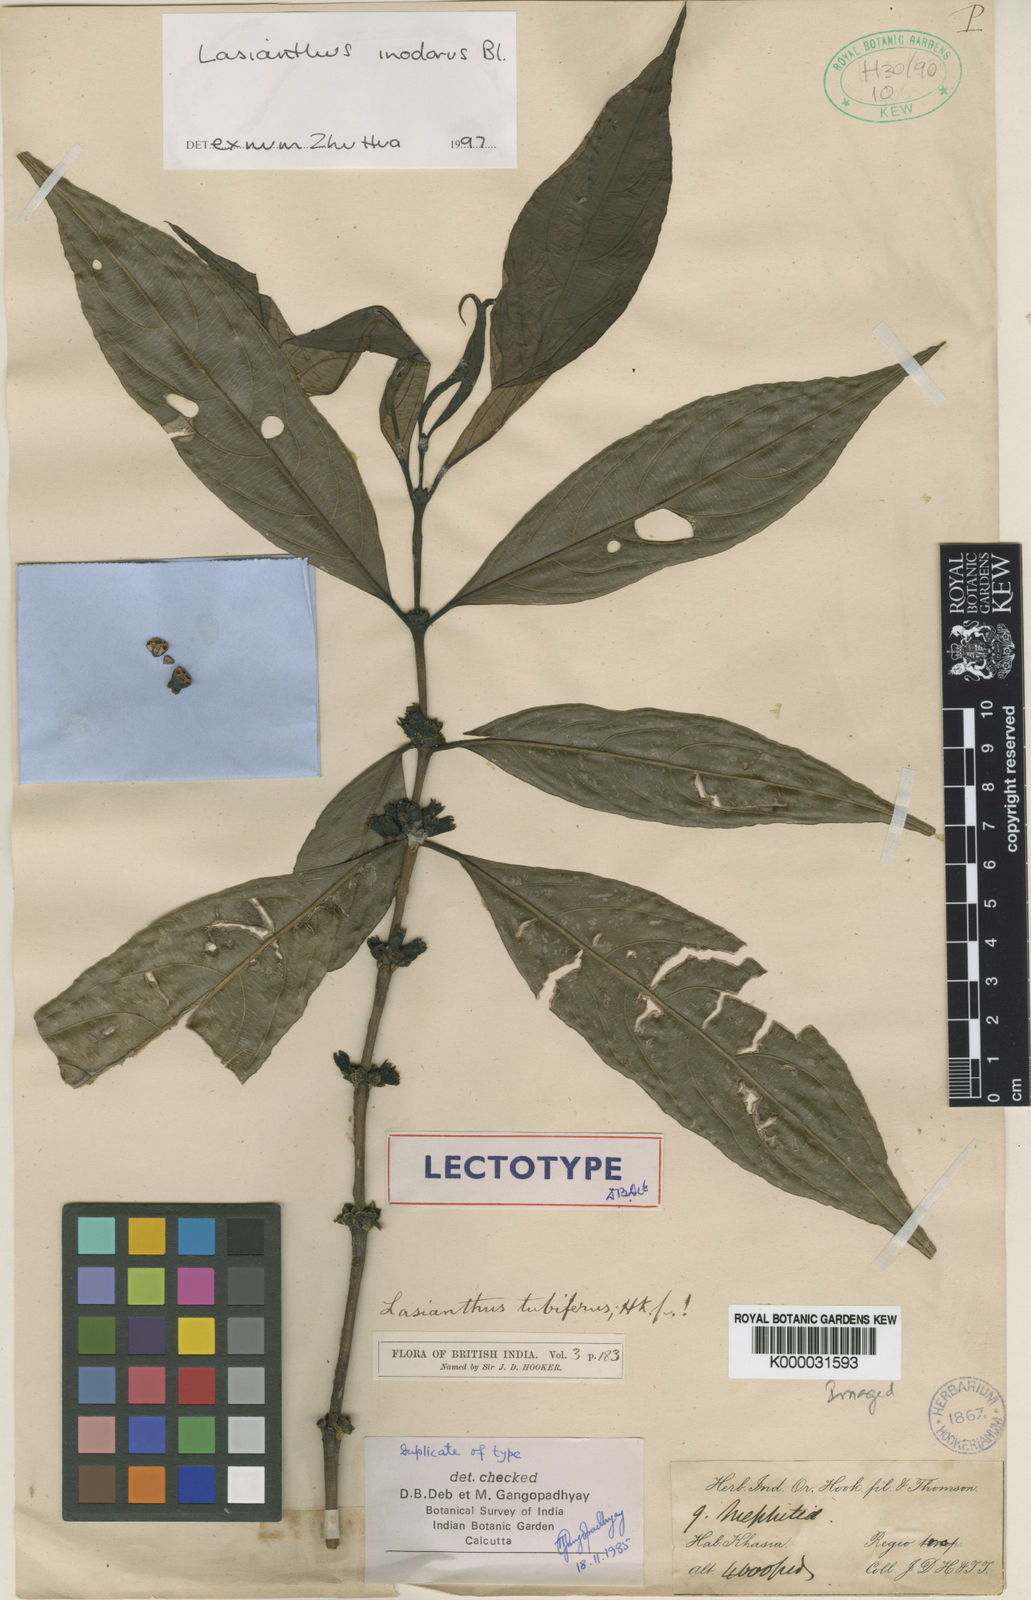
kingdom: Plantae
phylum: Tracheophyta
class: Magnoliopsida
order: Gentianales
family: Rubiaceae
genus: Lasianthus
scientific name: Lasianthus
